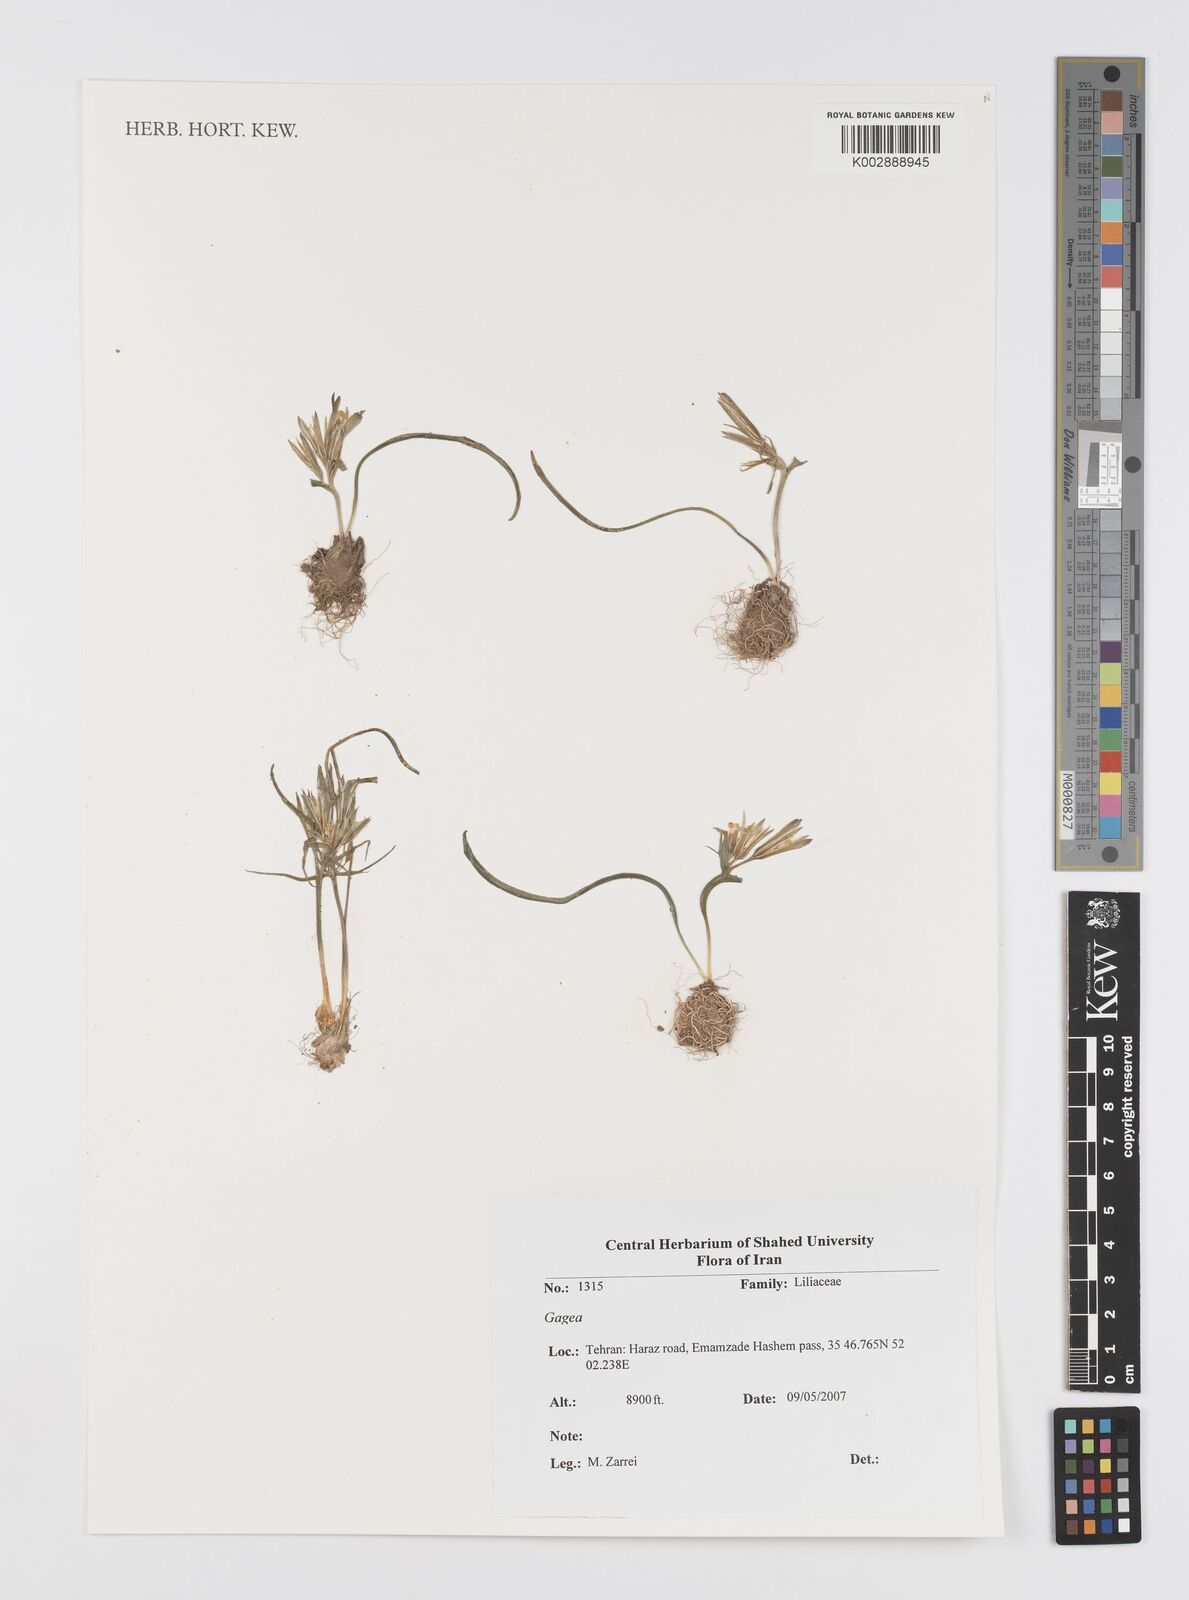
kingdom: Plantae
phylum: Tracheophyta
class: Liliopsida
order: Liliales
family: Liliaceae
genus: Gagea
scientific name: Gagea
